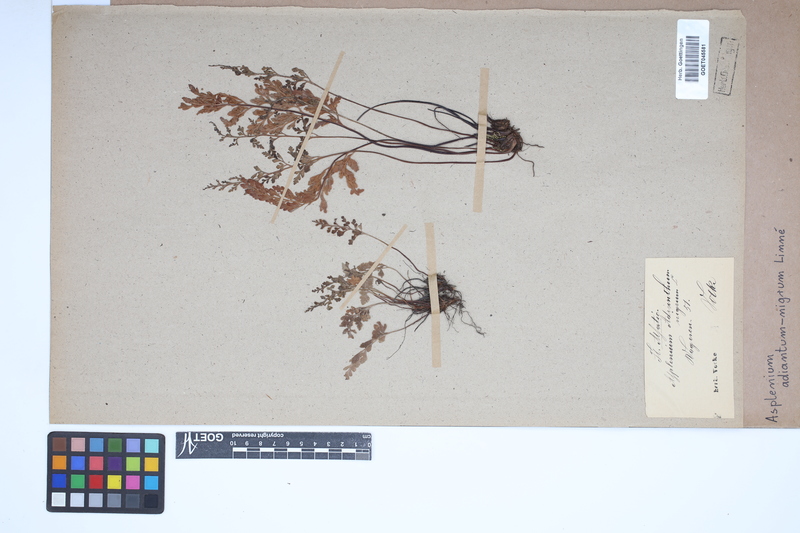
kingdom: Plantae
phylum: Tracheophyta
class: Polypodiopsida
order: Polypodiales
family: Aspleniaceae
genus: Asplenium
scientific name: Asplenium adiantum-nigrum
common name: Black spleenwort
